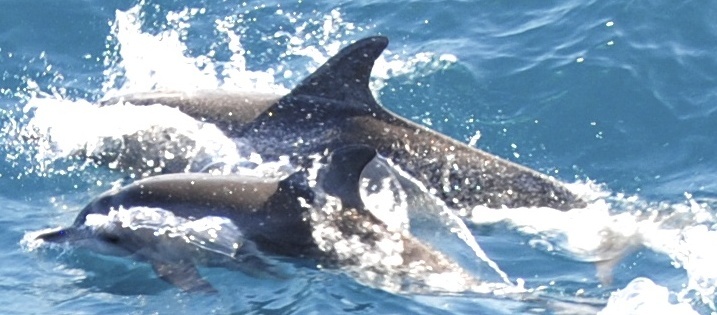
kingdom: Animalia
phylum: Chordata
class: Mammalia
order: Cetacea
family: Delphinidae
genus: Stenella
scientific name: Stenella frontalis
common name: Atlantic spotted dolphin
